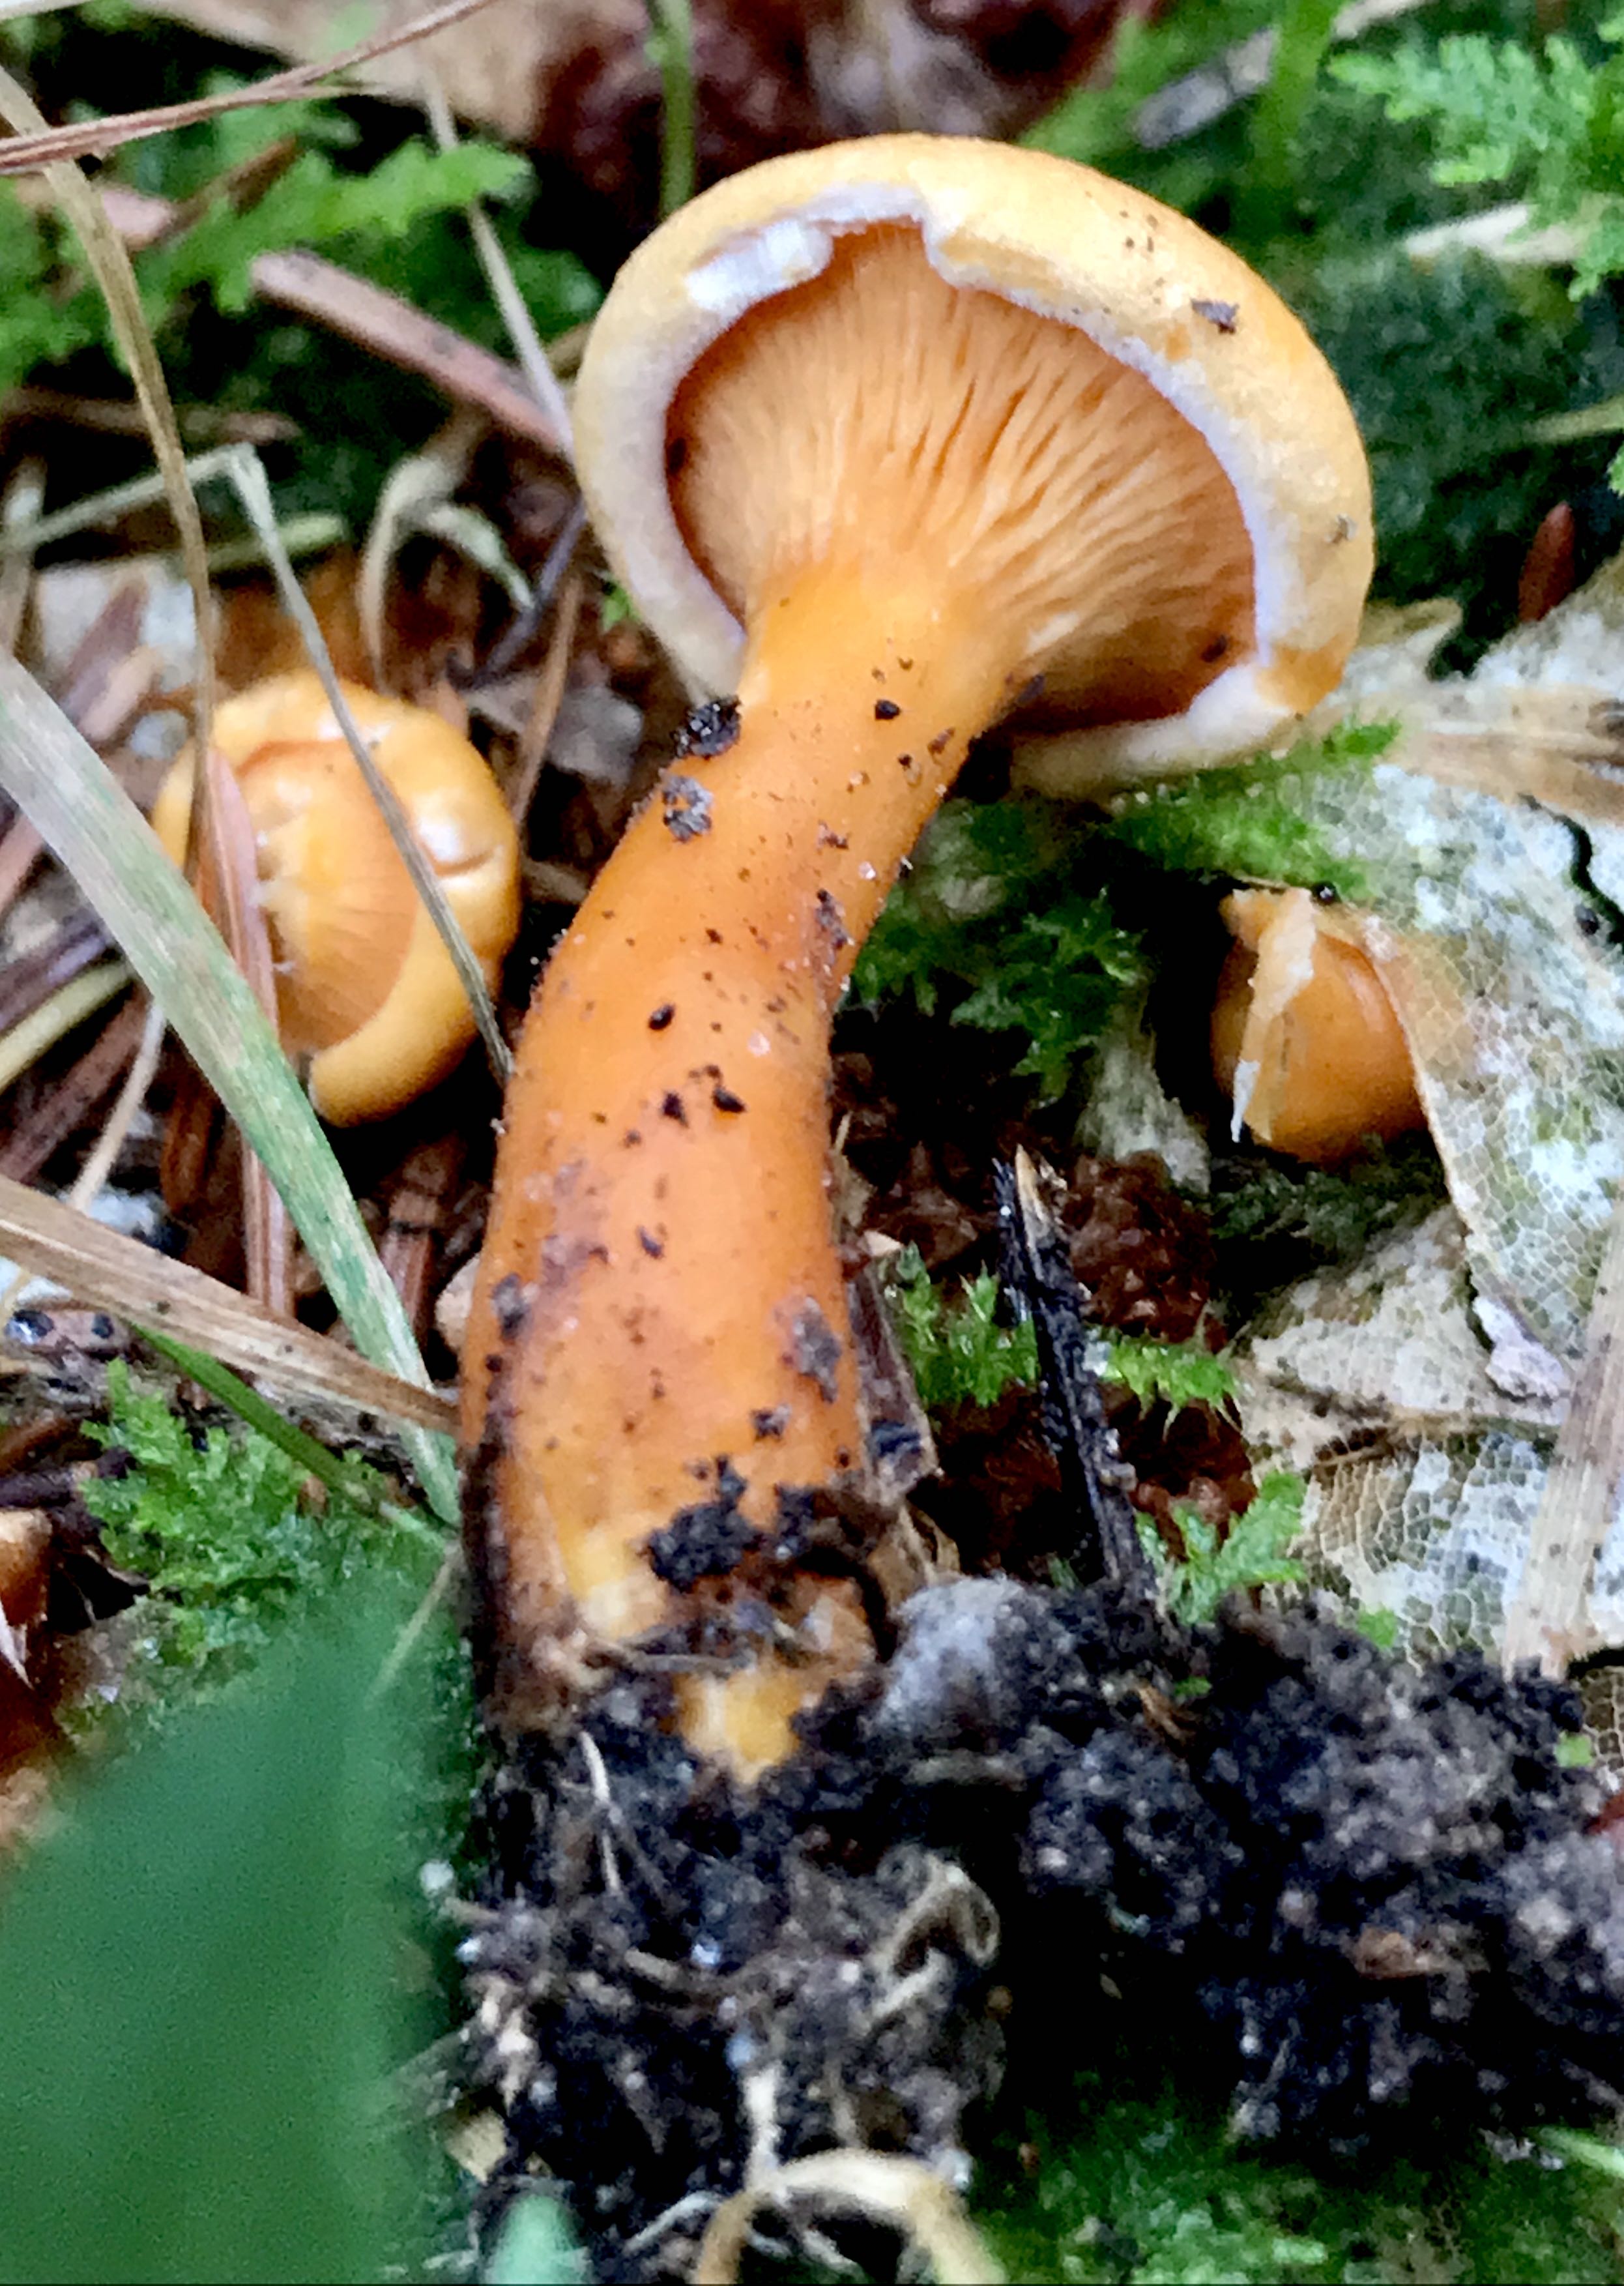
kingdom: Fungi
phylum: Basidiomycota
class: Agaricomycetes
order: Boletales
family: Hygrophoropsidaceae
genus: Hygrophoropsis
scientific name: Hygrophoropsis aurantiaca
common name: almindelig orangekantarel
